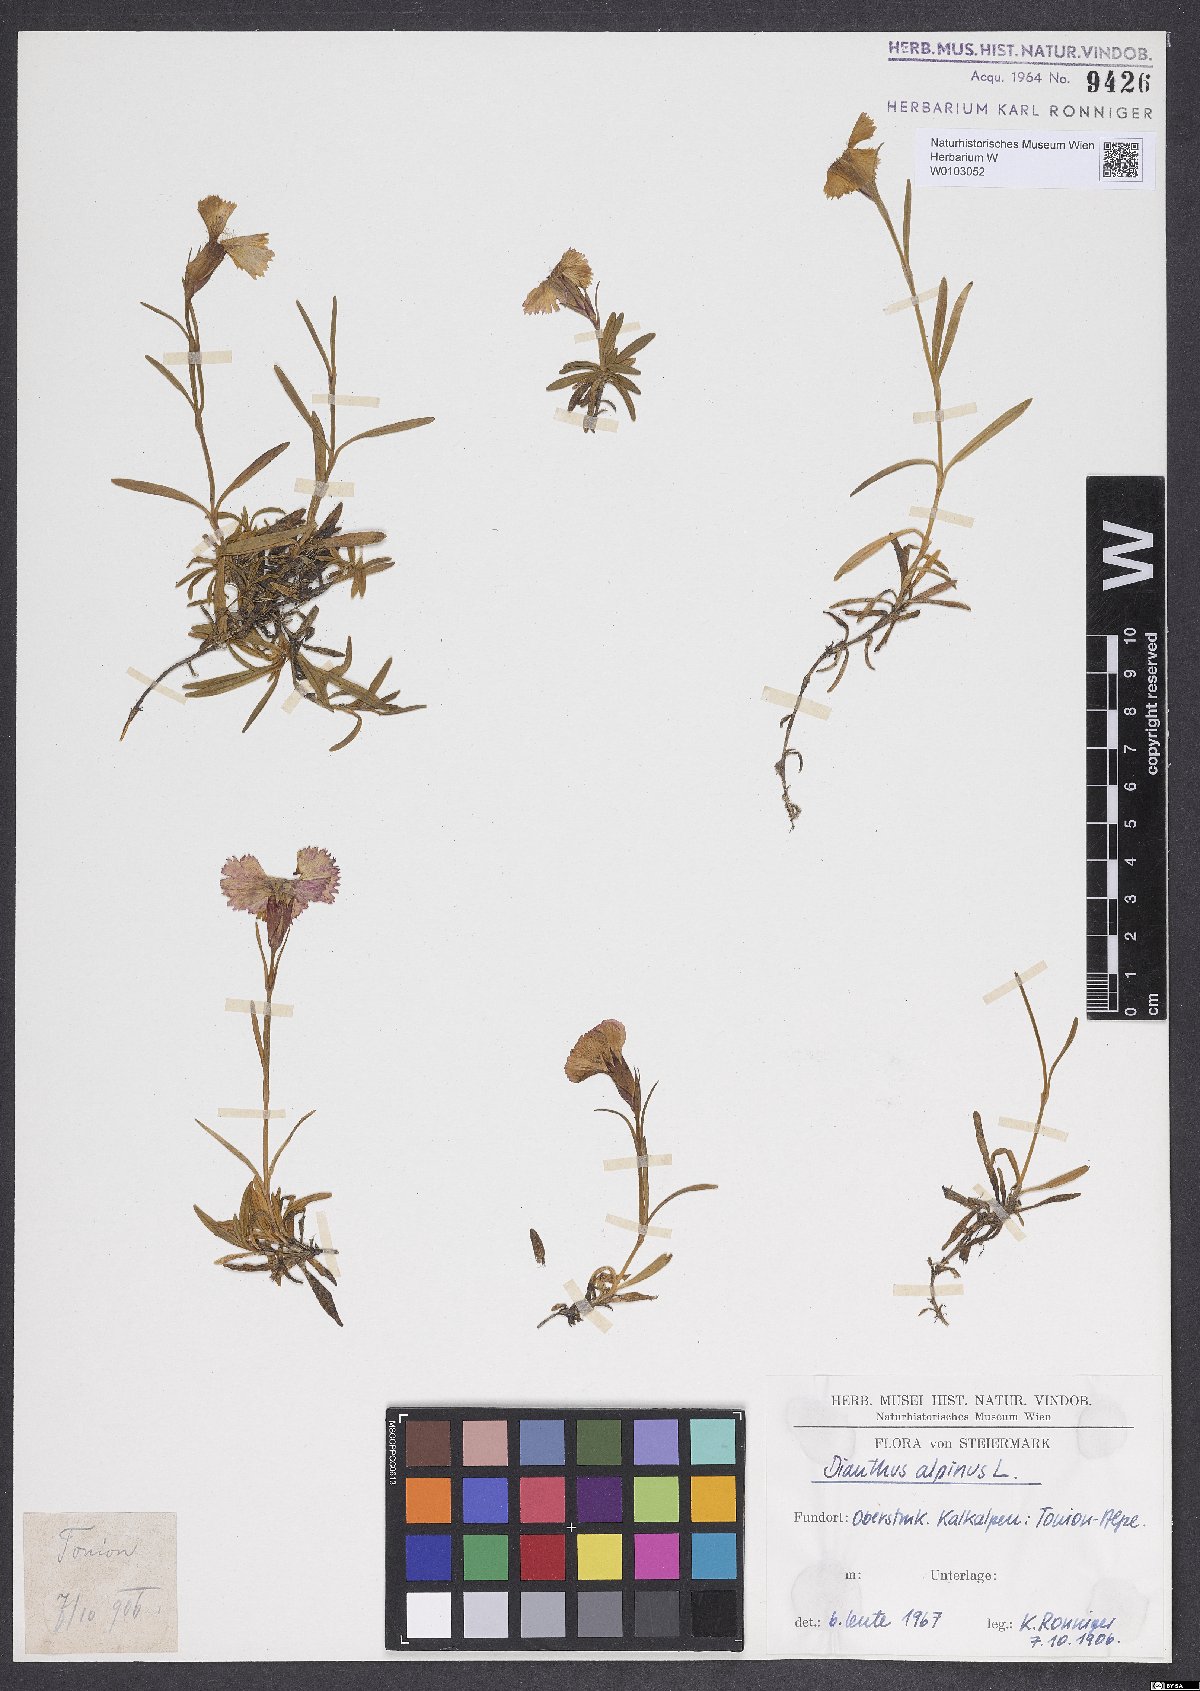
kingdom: Plantae
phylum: Tracheophyta
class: Magnoliopsida
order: Caryophyllales
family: Caryophyllaceae
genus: Dianthus
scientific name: Dianthus alpinus
